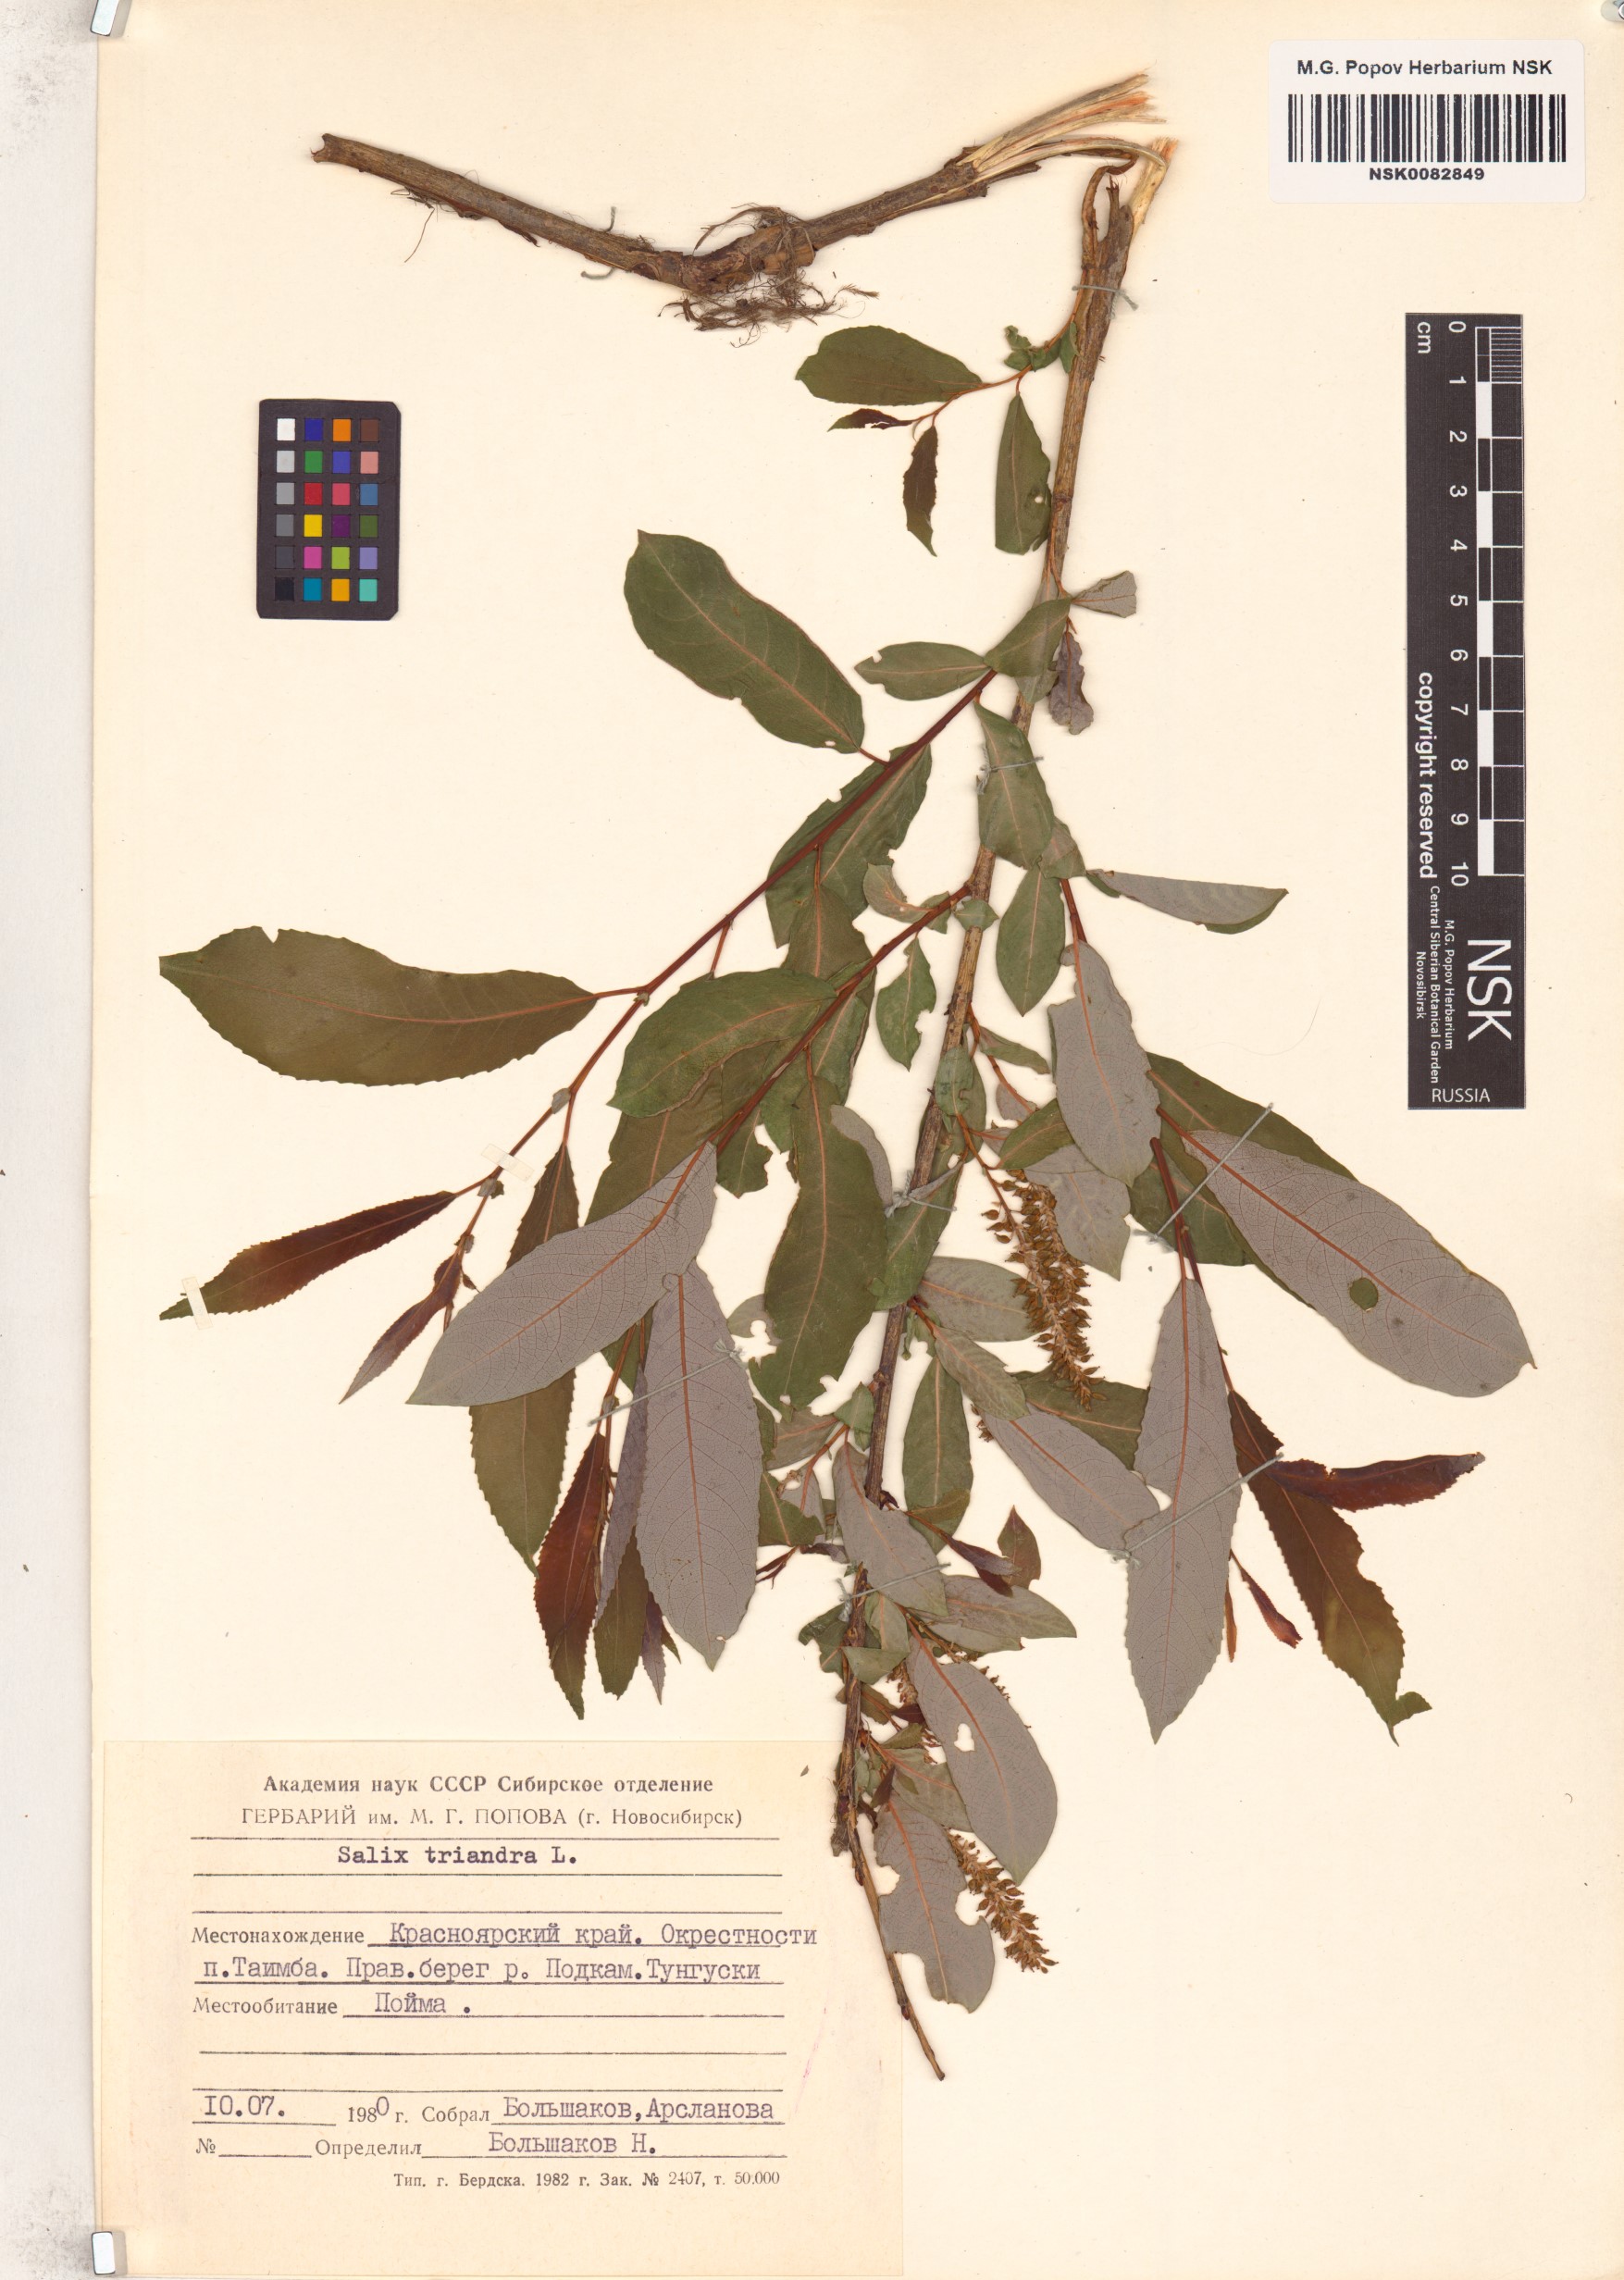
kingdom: Plantae
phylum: Tracheophyta
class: Magnoliopsida
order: Malpighiales
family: Salicaceae
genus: Salix
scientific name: Salix triandra
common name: Almond willow
